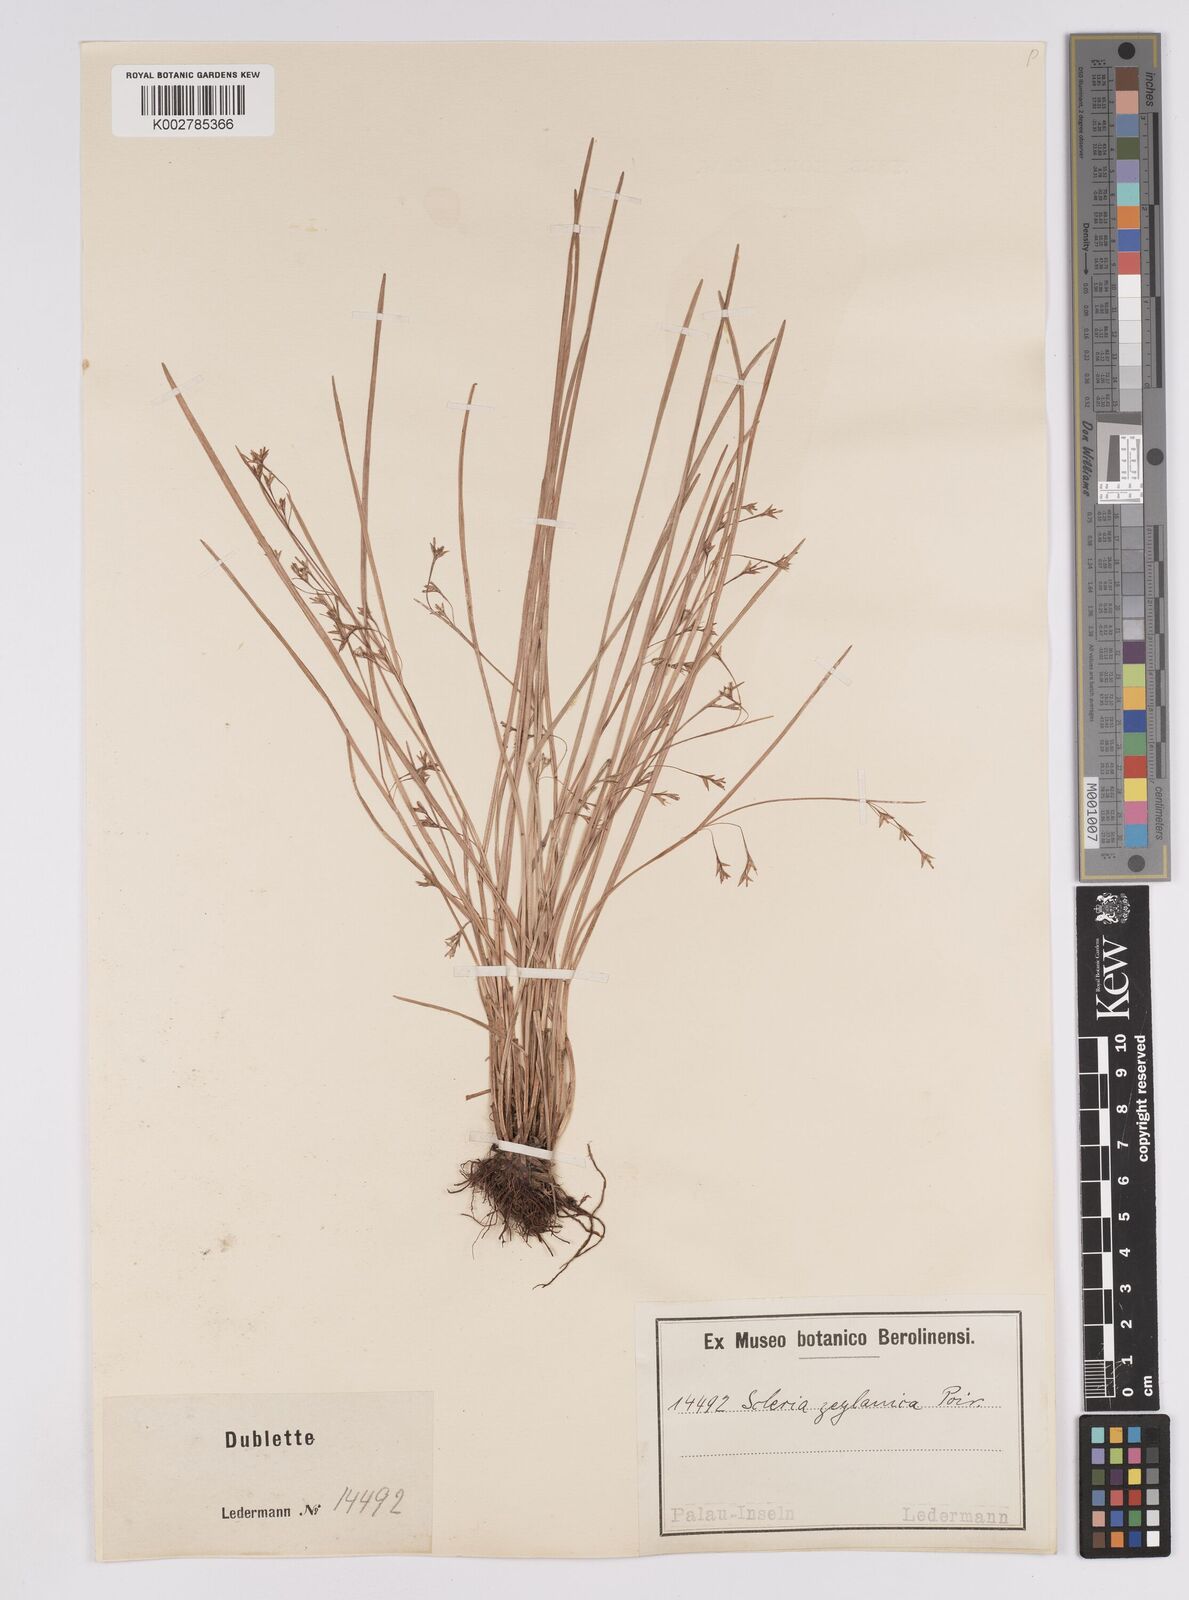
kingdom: Plantae
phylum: Tracheophyta
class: Liliopsida
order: Poales
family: Cyperaceae
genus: Scleria
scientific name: Scleria levis
